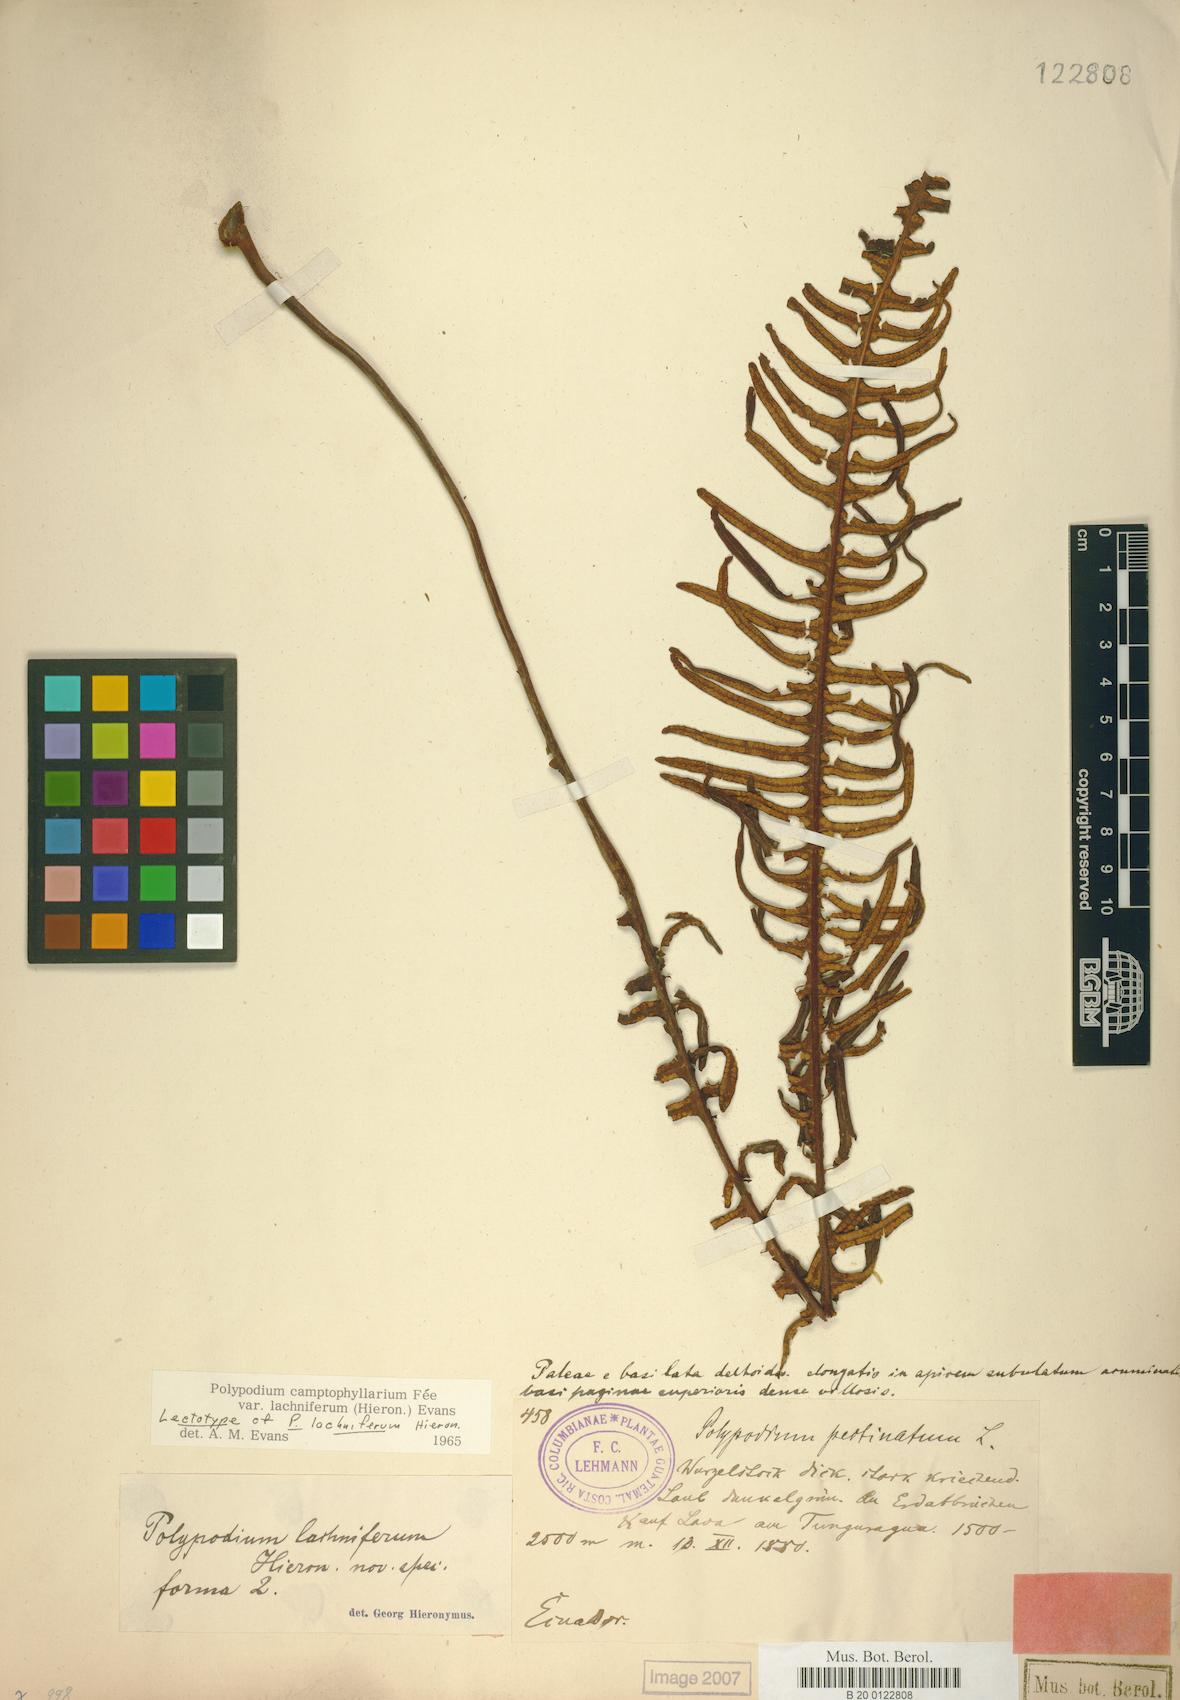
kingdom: Plantae
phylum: Tracheophyta
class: Polypodiopsida
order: Polypodiales
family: Polypodiaceae
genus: Pecluma
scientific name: Pecluma camptophyllaria
